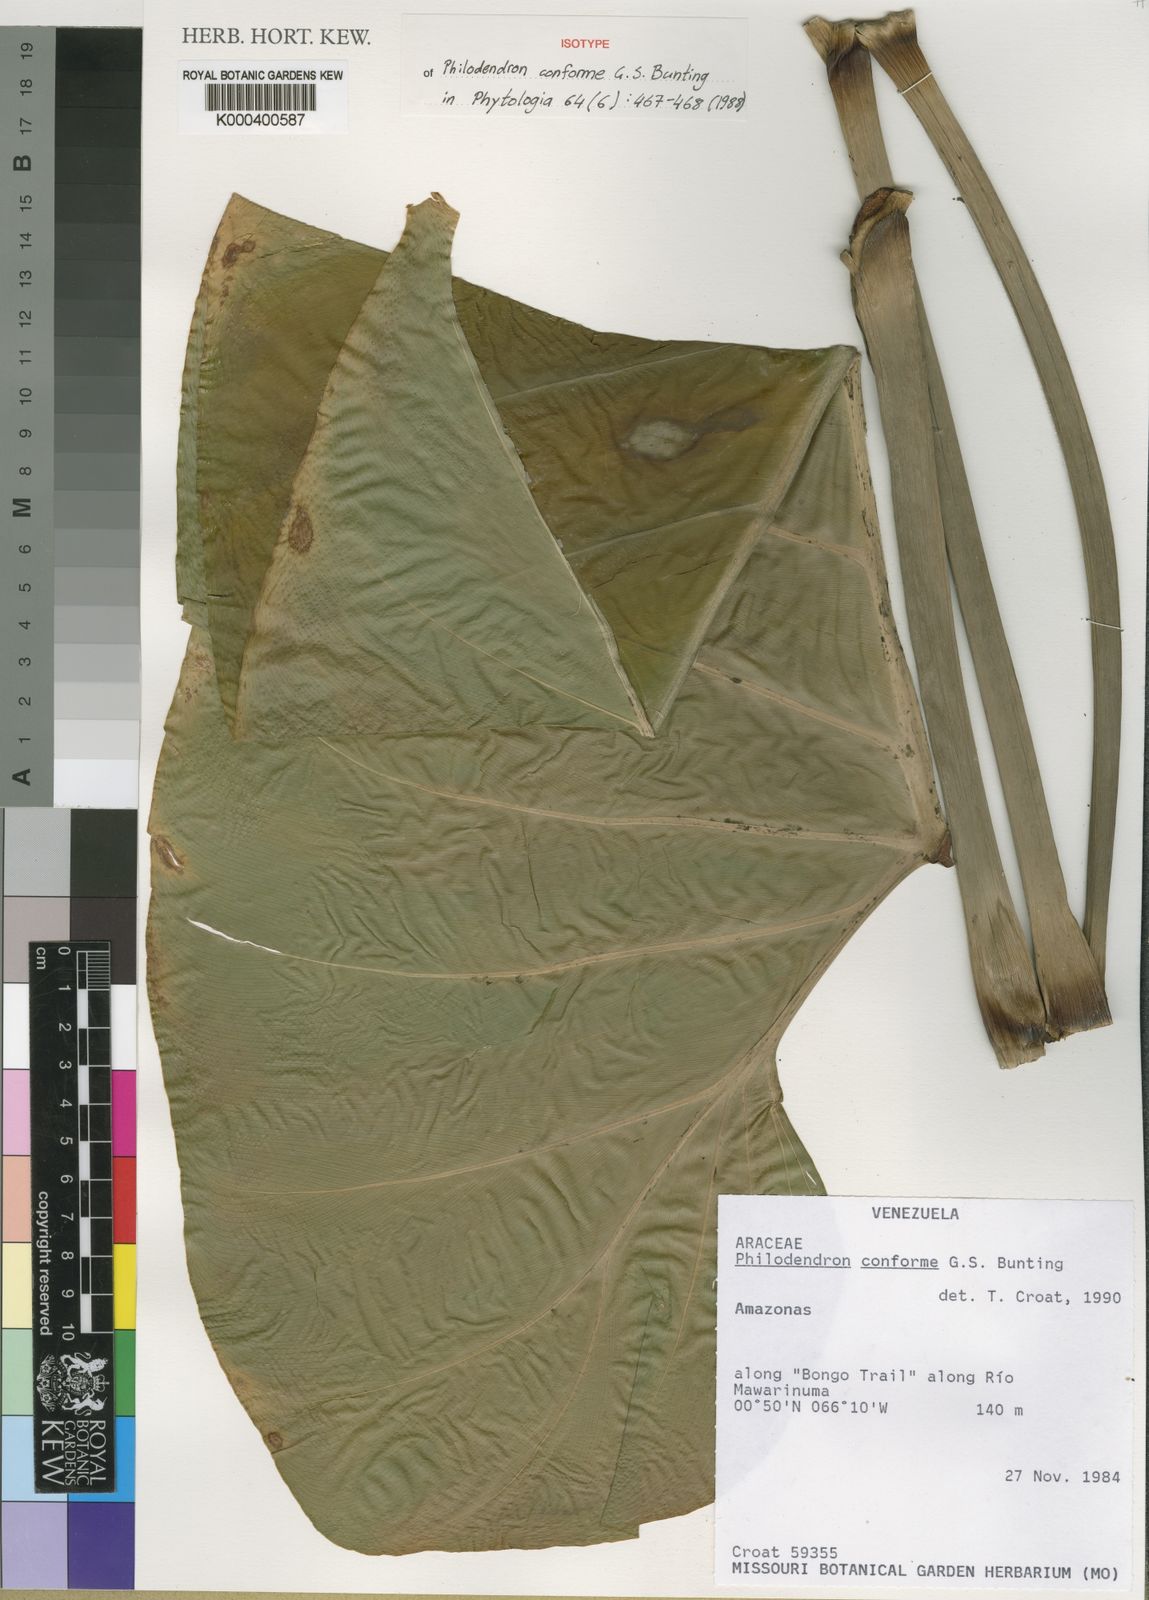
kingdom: Plantae
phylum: Tracheophyta
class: Liliopsida
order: Alismatales
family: Araceae
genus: Philodendron
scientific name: Philodendron conforme
